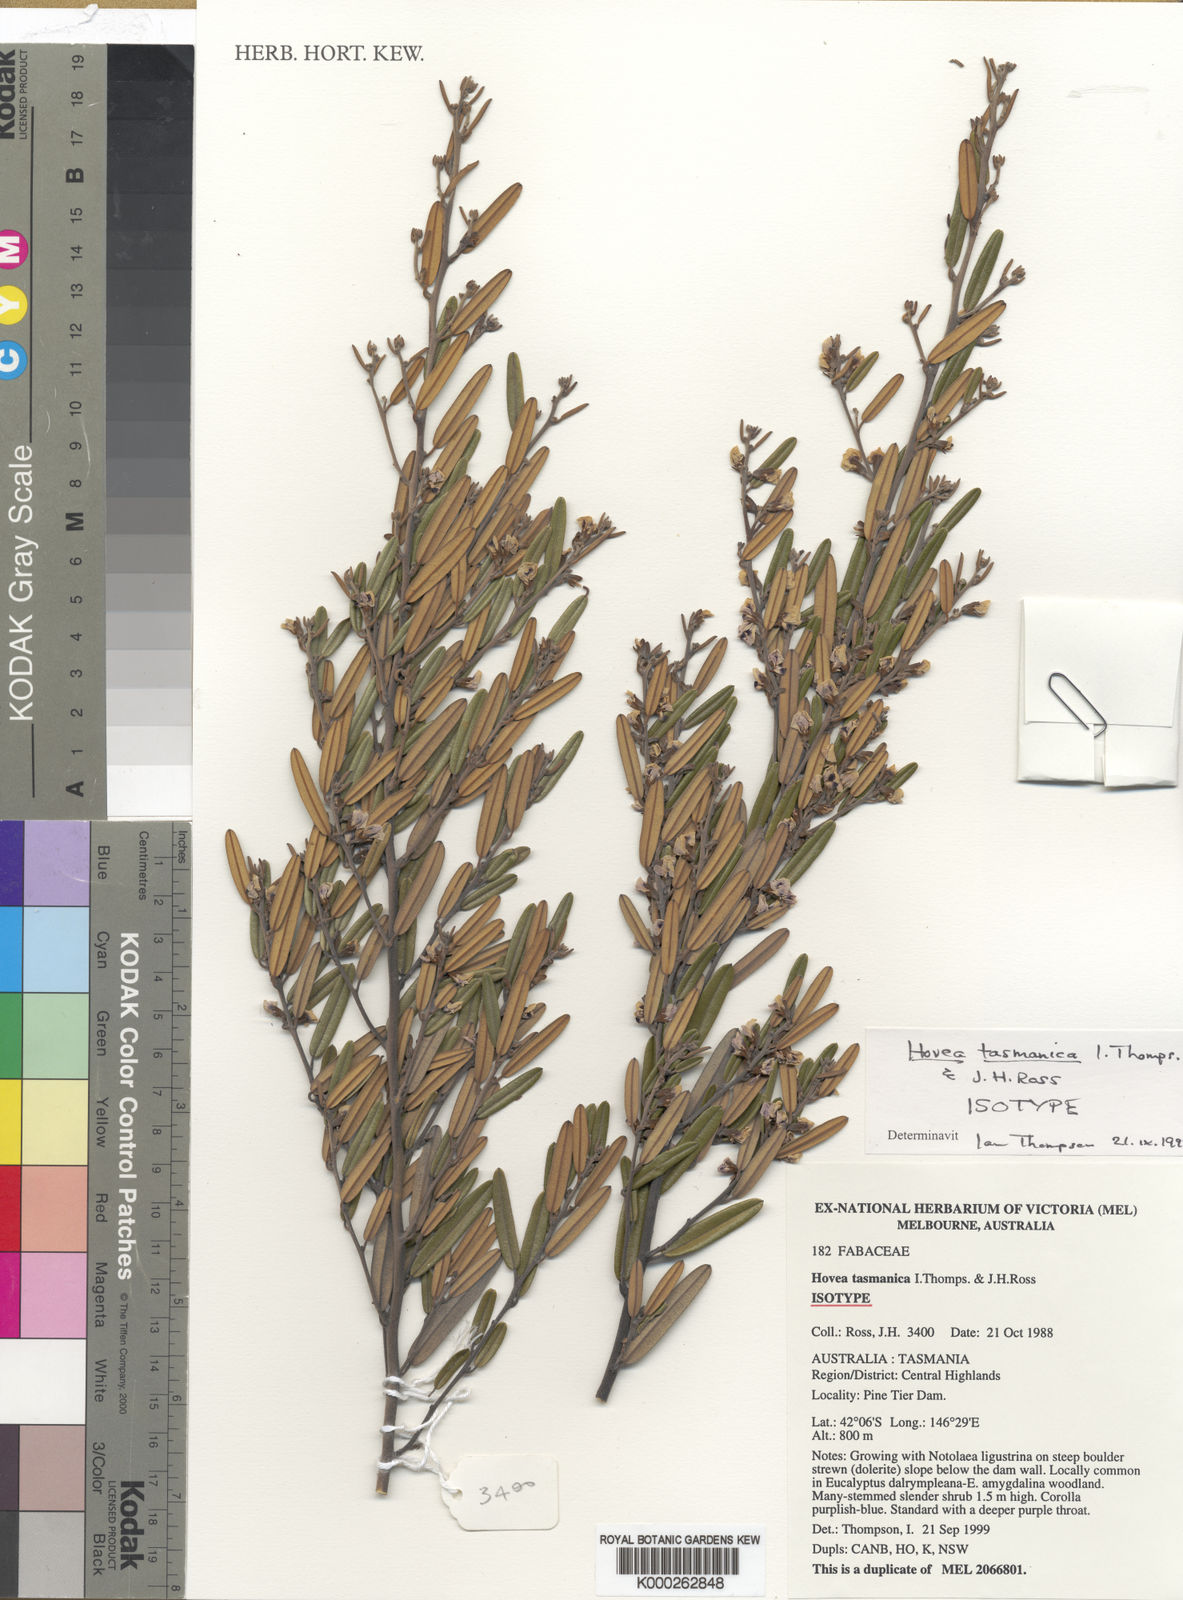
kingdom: Plantae
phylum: Tracheophyta
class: Magnoliopsida
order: Fabales
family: Fabaceae
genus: Hovea
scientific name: Hovea tasmanica
